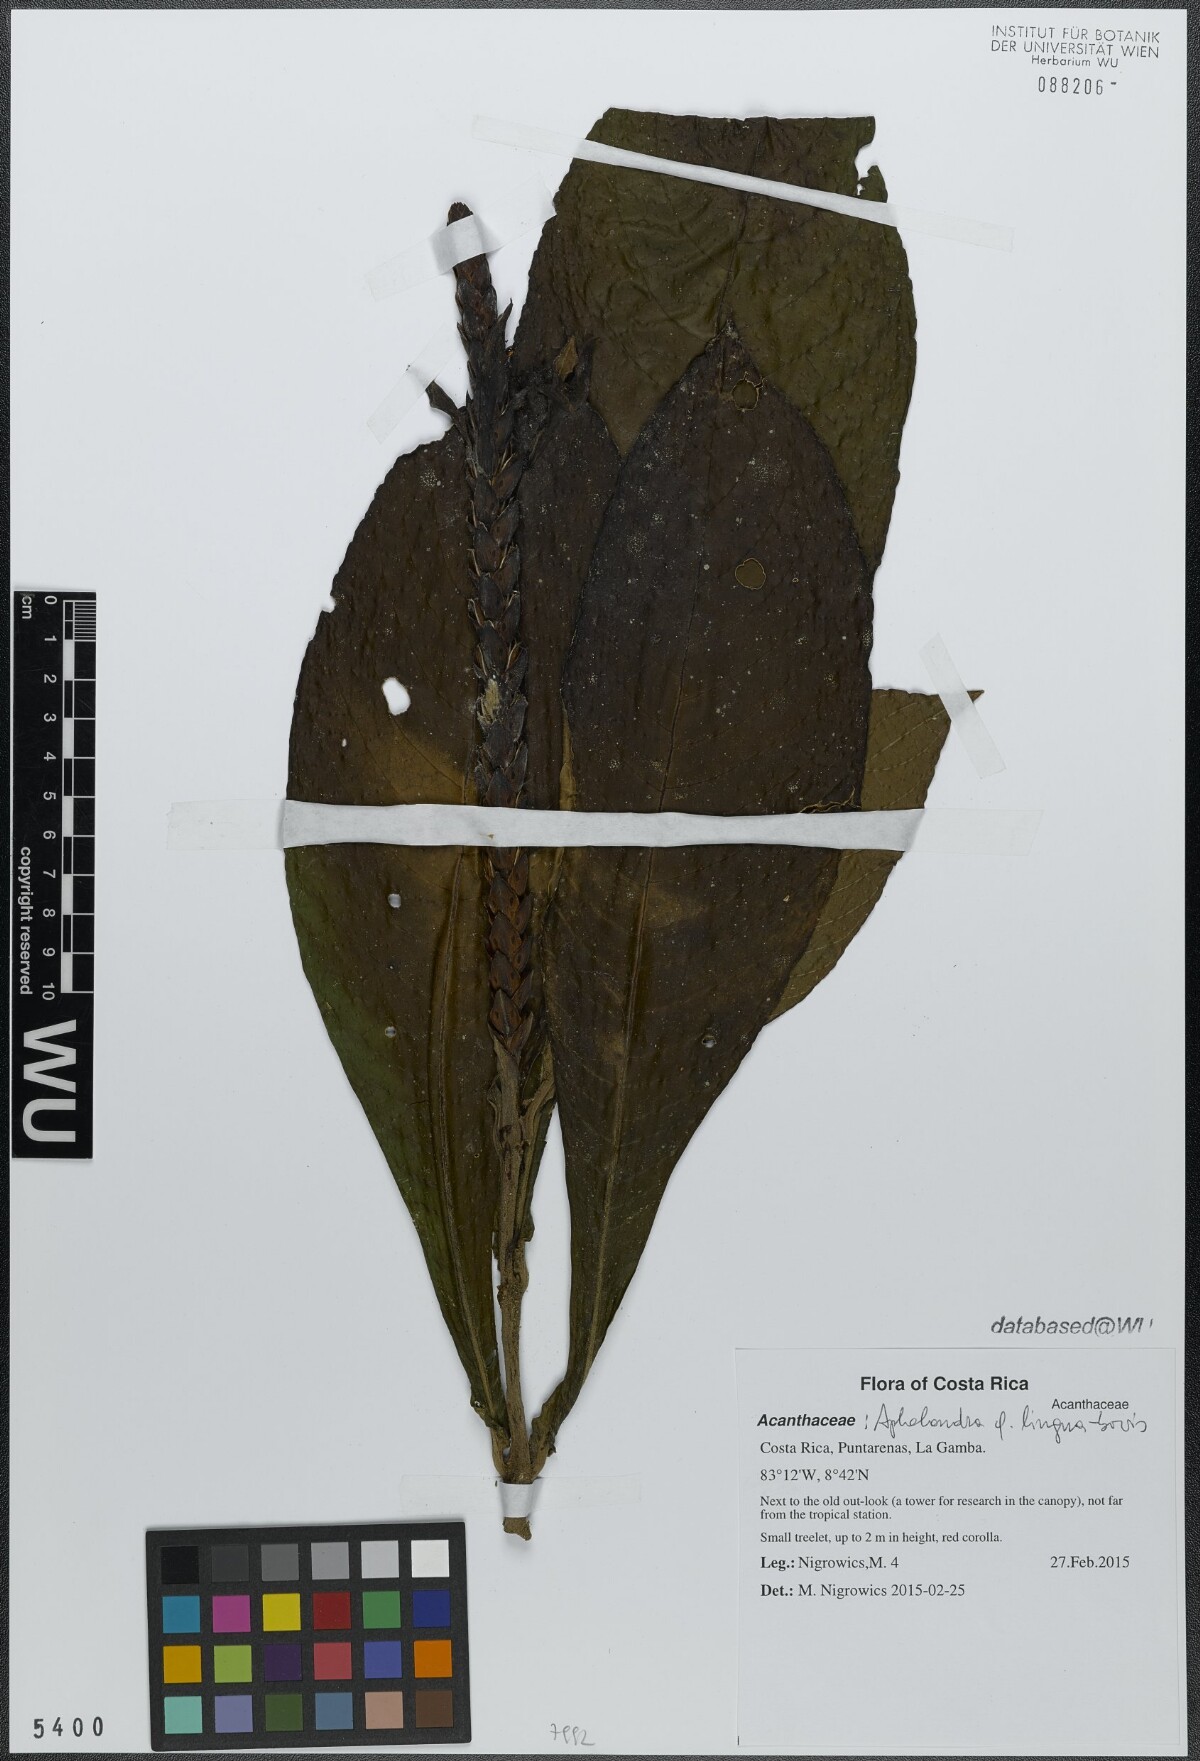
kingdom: Plantae
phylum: Tracheophyta
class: Magnoliopsida
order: Lamiales
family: Acanthaceae
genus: Aphelandra
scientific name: Aphelandra lingua-bovis
